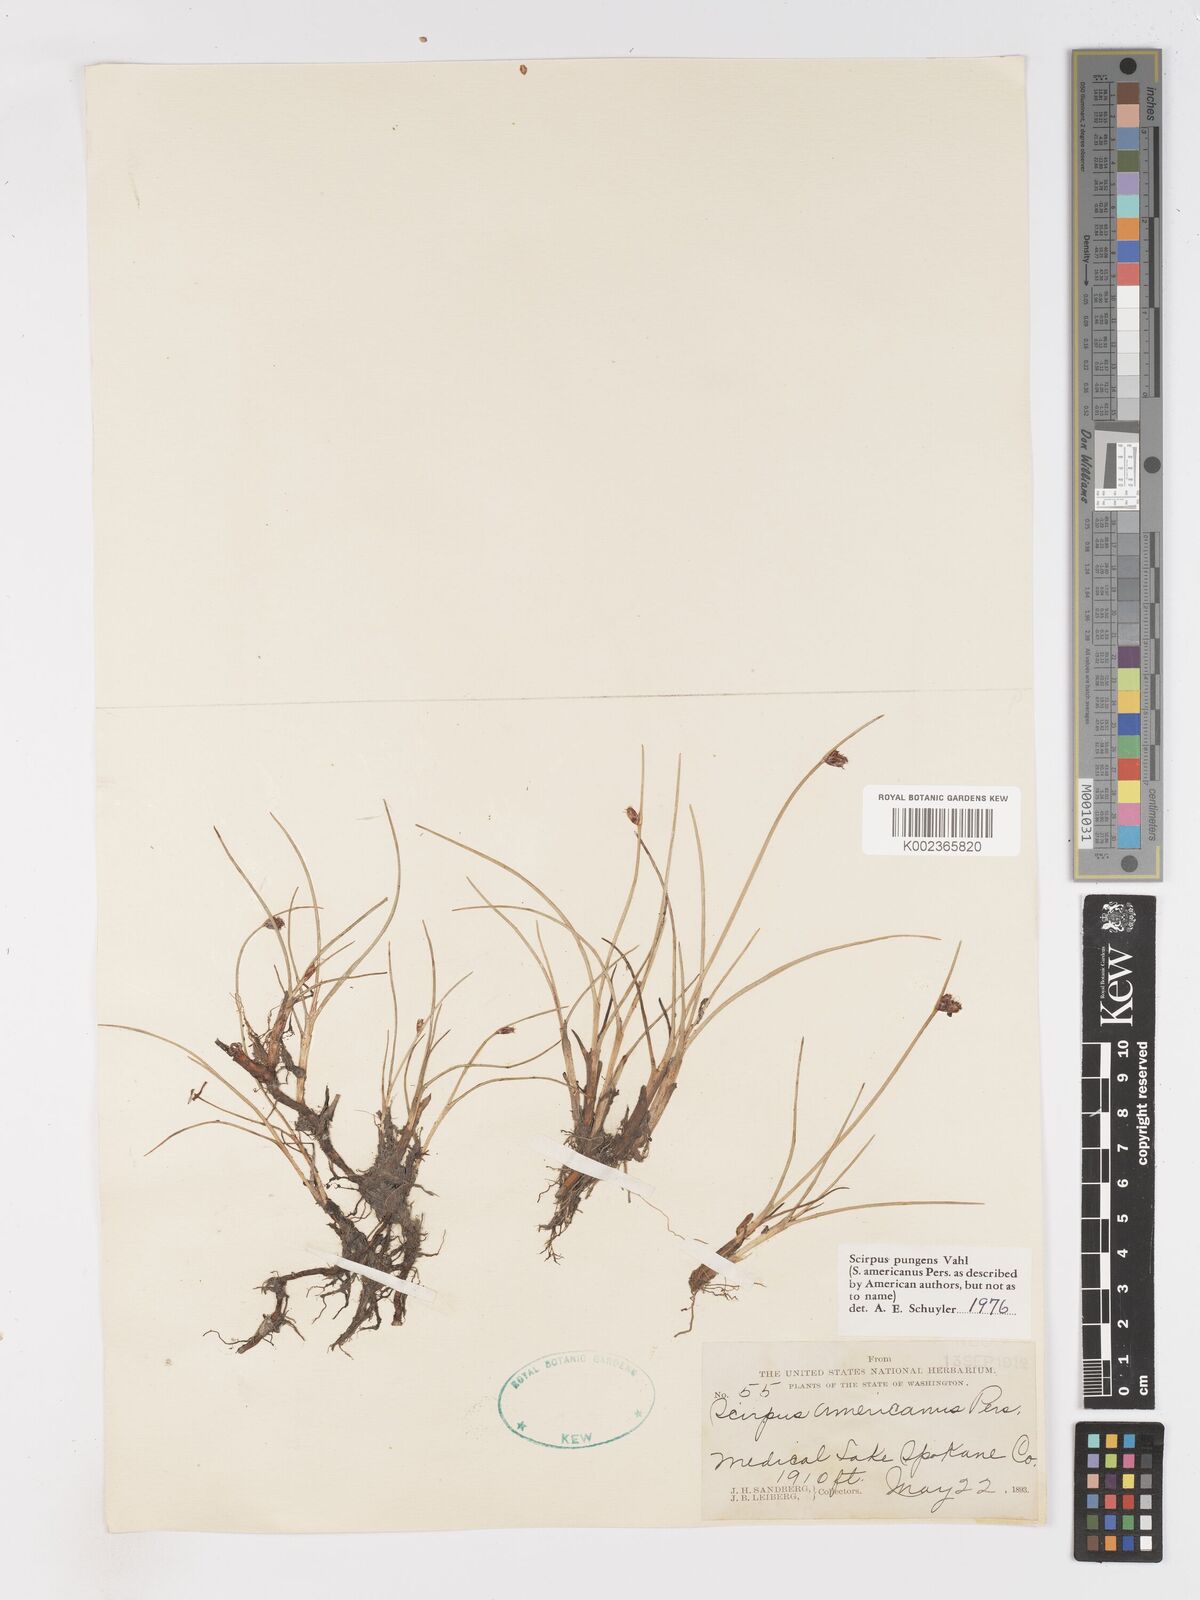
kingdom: Plantae
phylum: Tracheophyta
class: Liliopsida
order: Poales
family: Cyperaceae
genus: Schoenoplectus
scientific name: Schoenoplectus pungens
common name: Sharp club-rush
